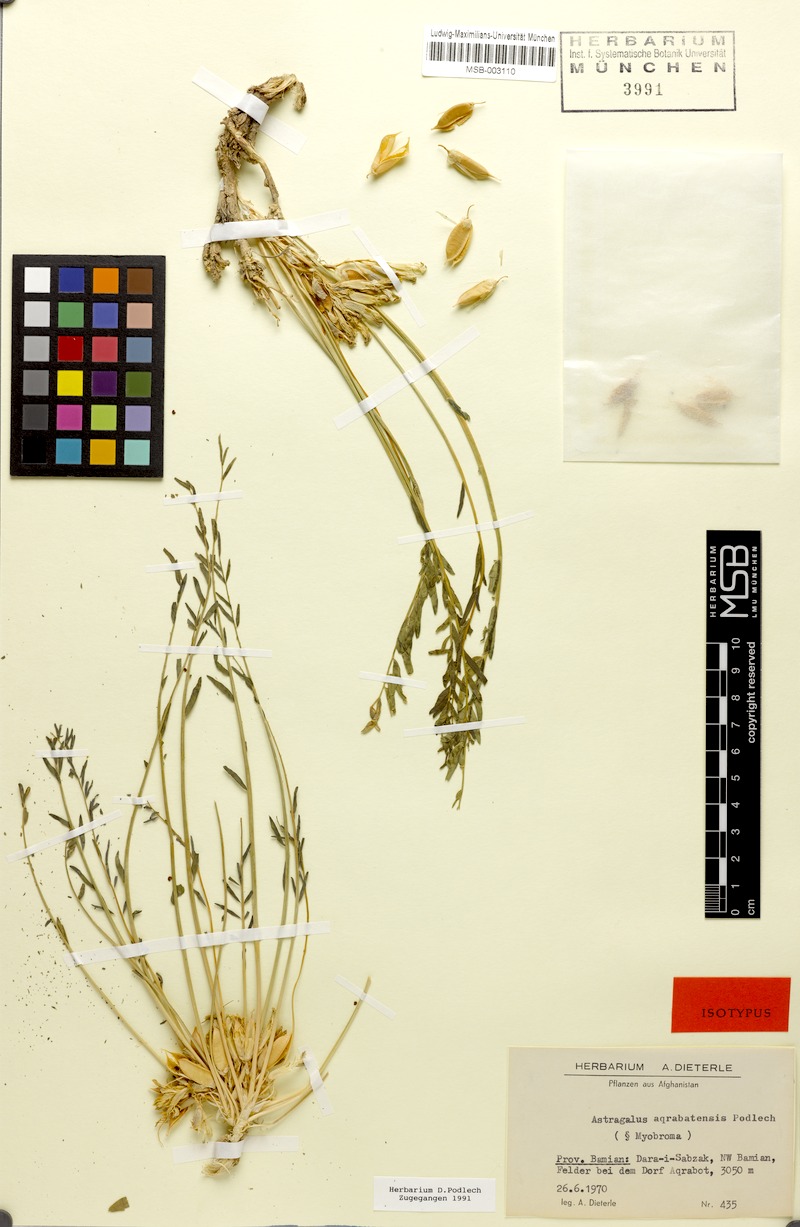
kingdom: Plantae
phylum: Tracheophyta
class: Magnoliopsida
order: Fabales
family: Fabaceae
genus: Astragalus
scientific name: Astragalus aqrabatensis
